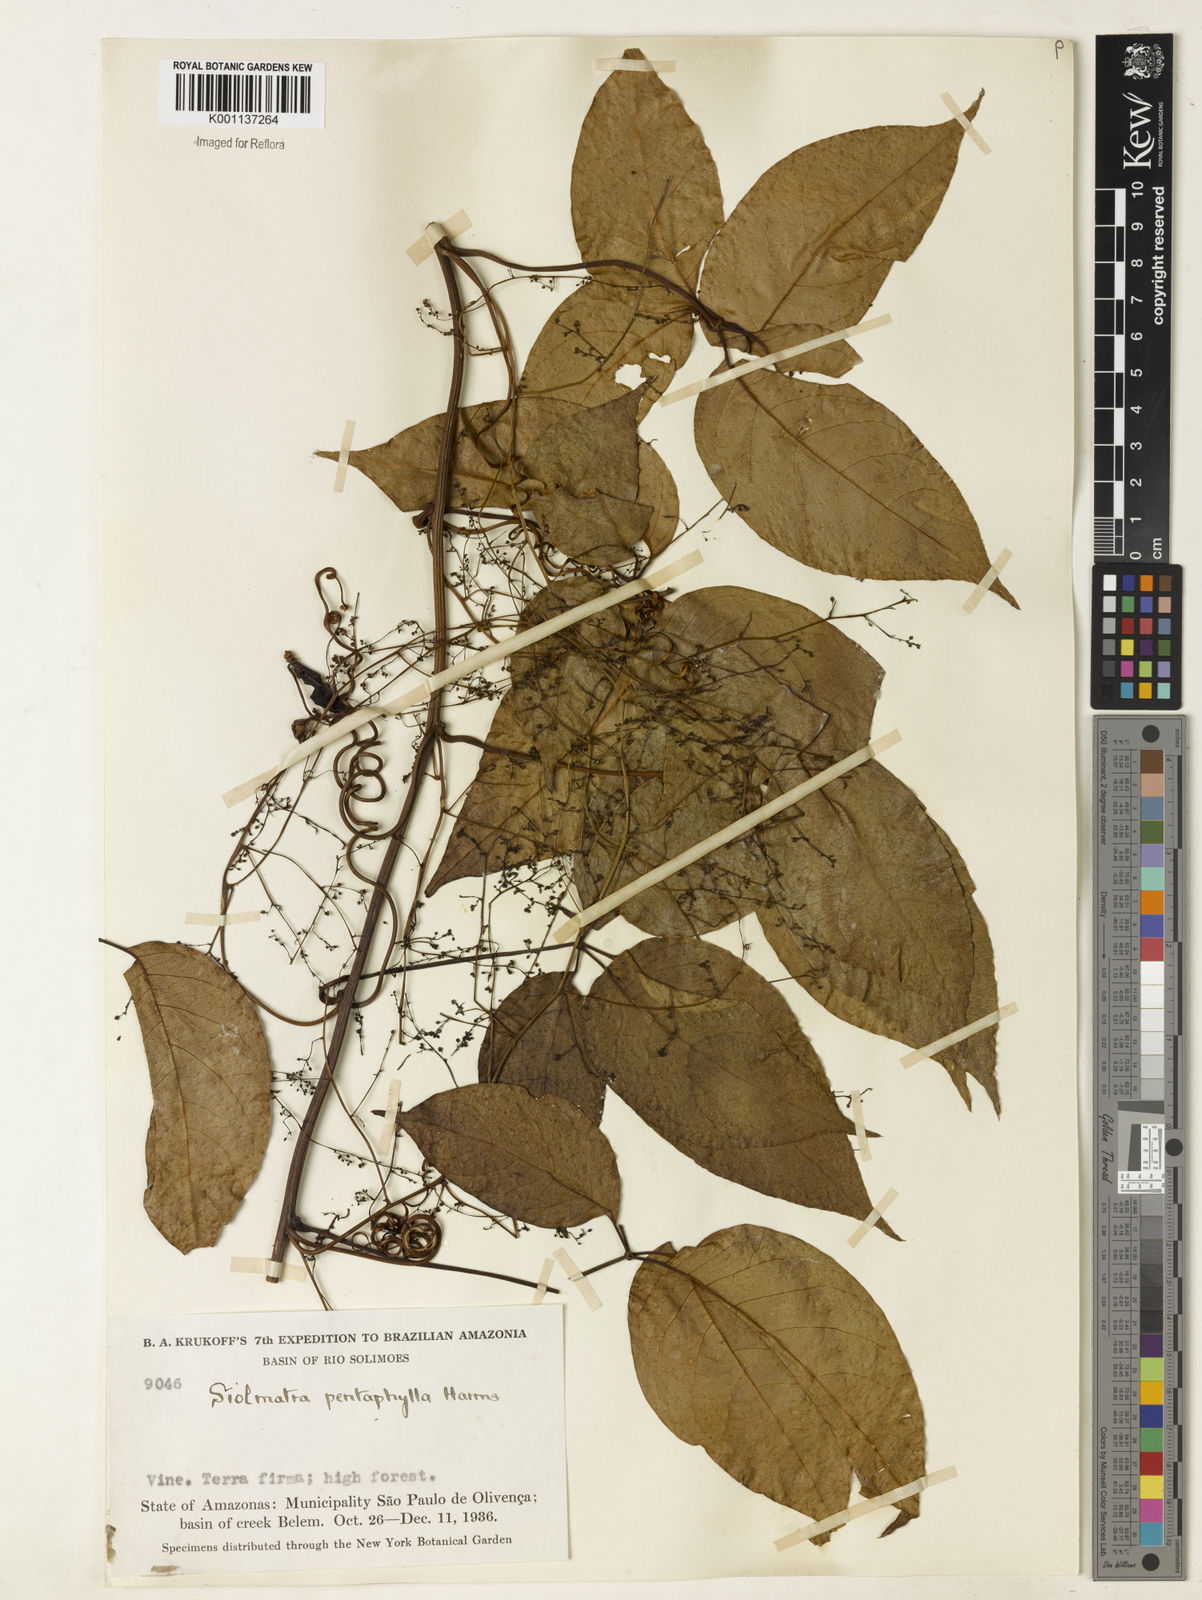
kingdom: Plantae
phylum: Tracheophyta
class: Magnoliopsida
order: Cucurbitales
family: Cucurbitaceae
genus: Siolmatra
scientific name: Siolmatra pentaphylla
